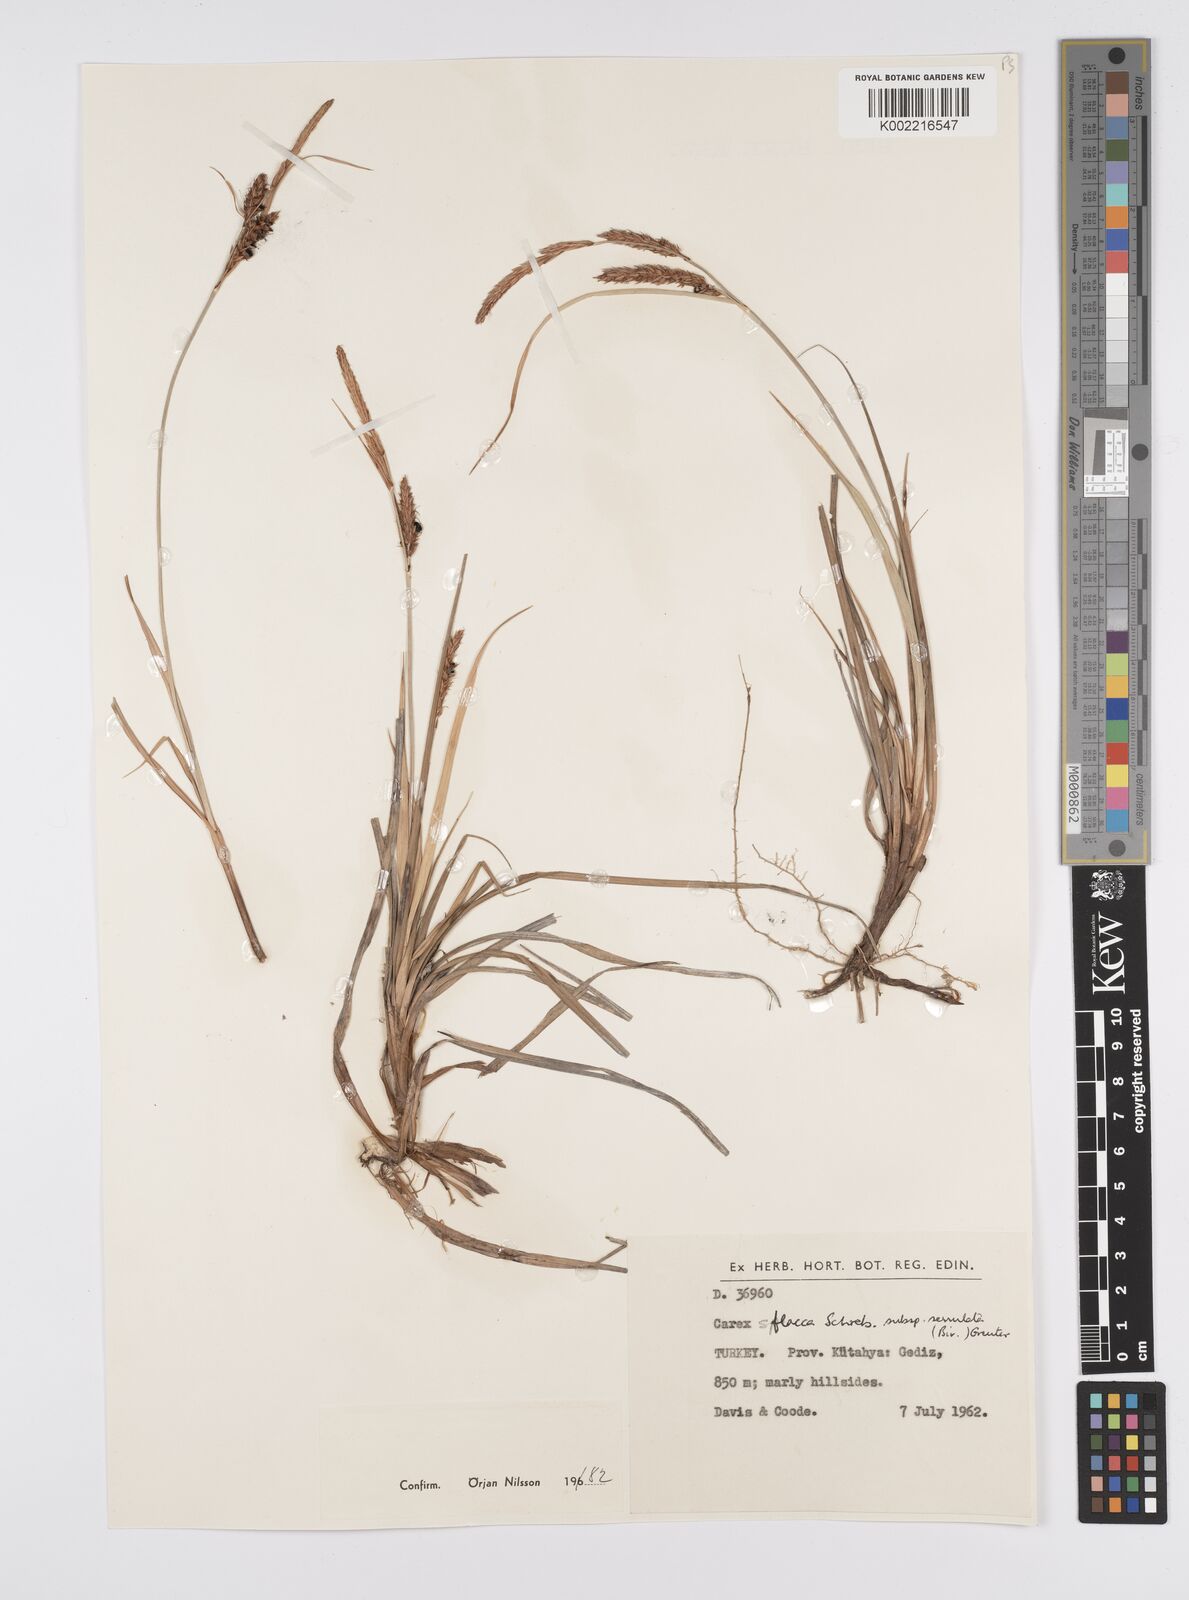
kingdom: Plantae
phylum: Tracheophyta
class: Liliopsida
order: Poales
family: Cyperaceae
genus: Carex
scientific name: Carex flacca
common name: Glaucous sedge
